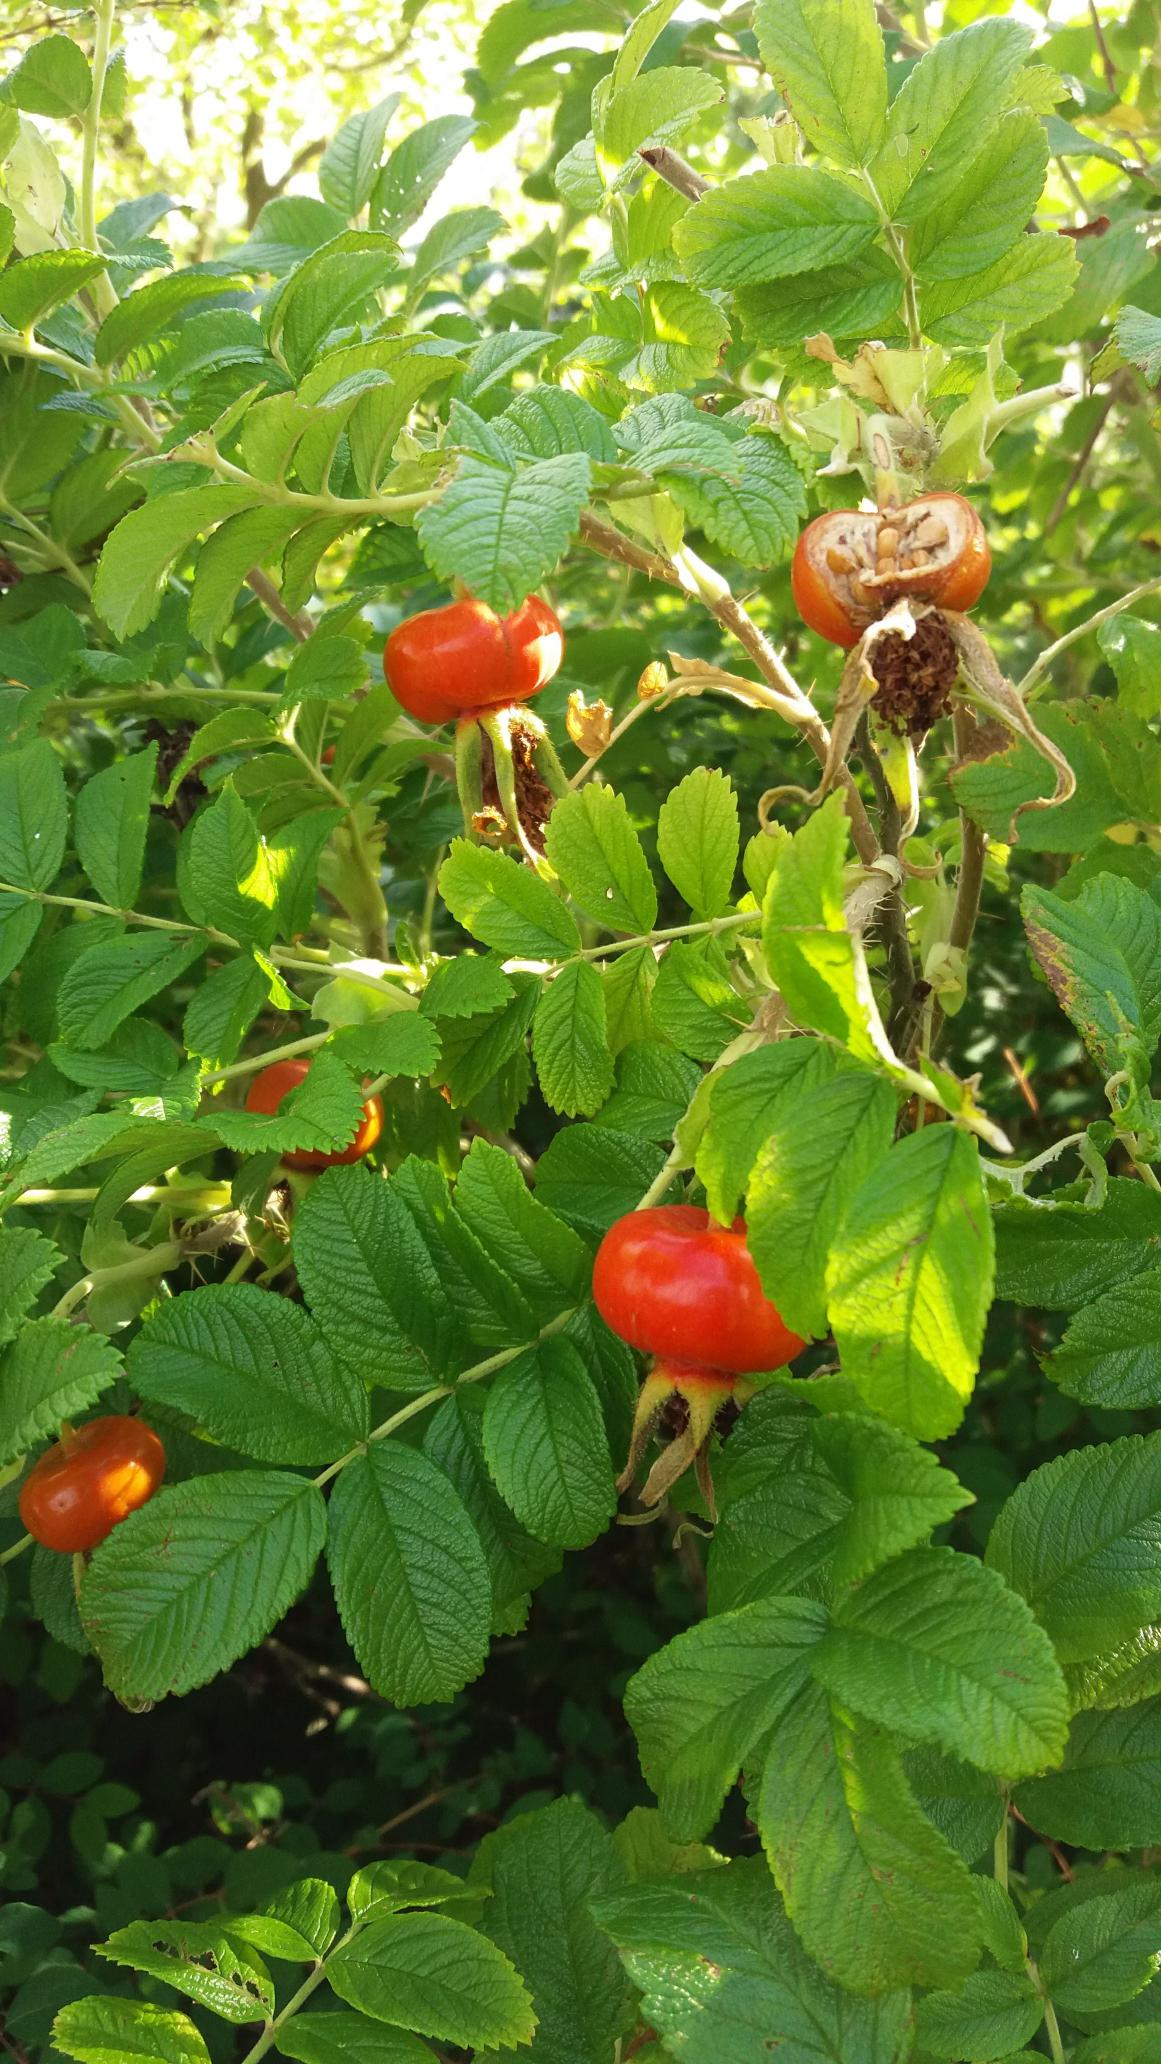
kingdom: Plantae
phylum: Tracheophyta
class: Magnoliopsida
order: Rosales
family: Rosaceae
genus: Rosa
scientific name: Rosa rugosa
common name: Rynket rose
